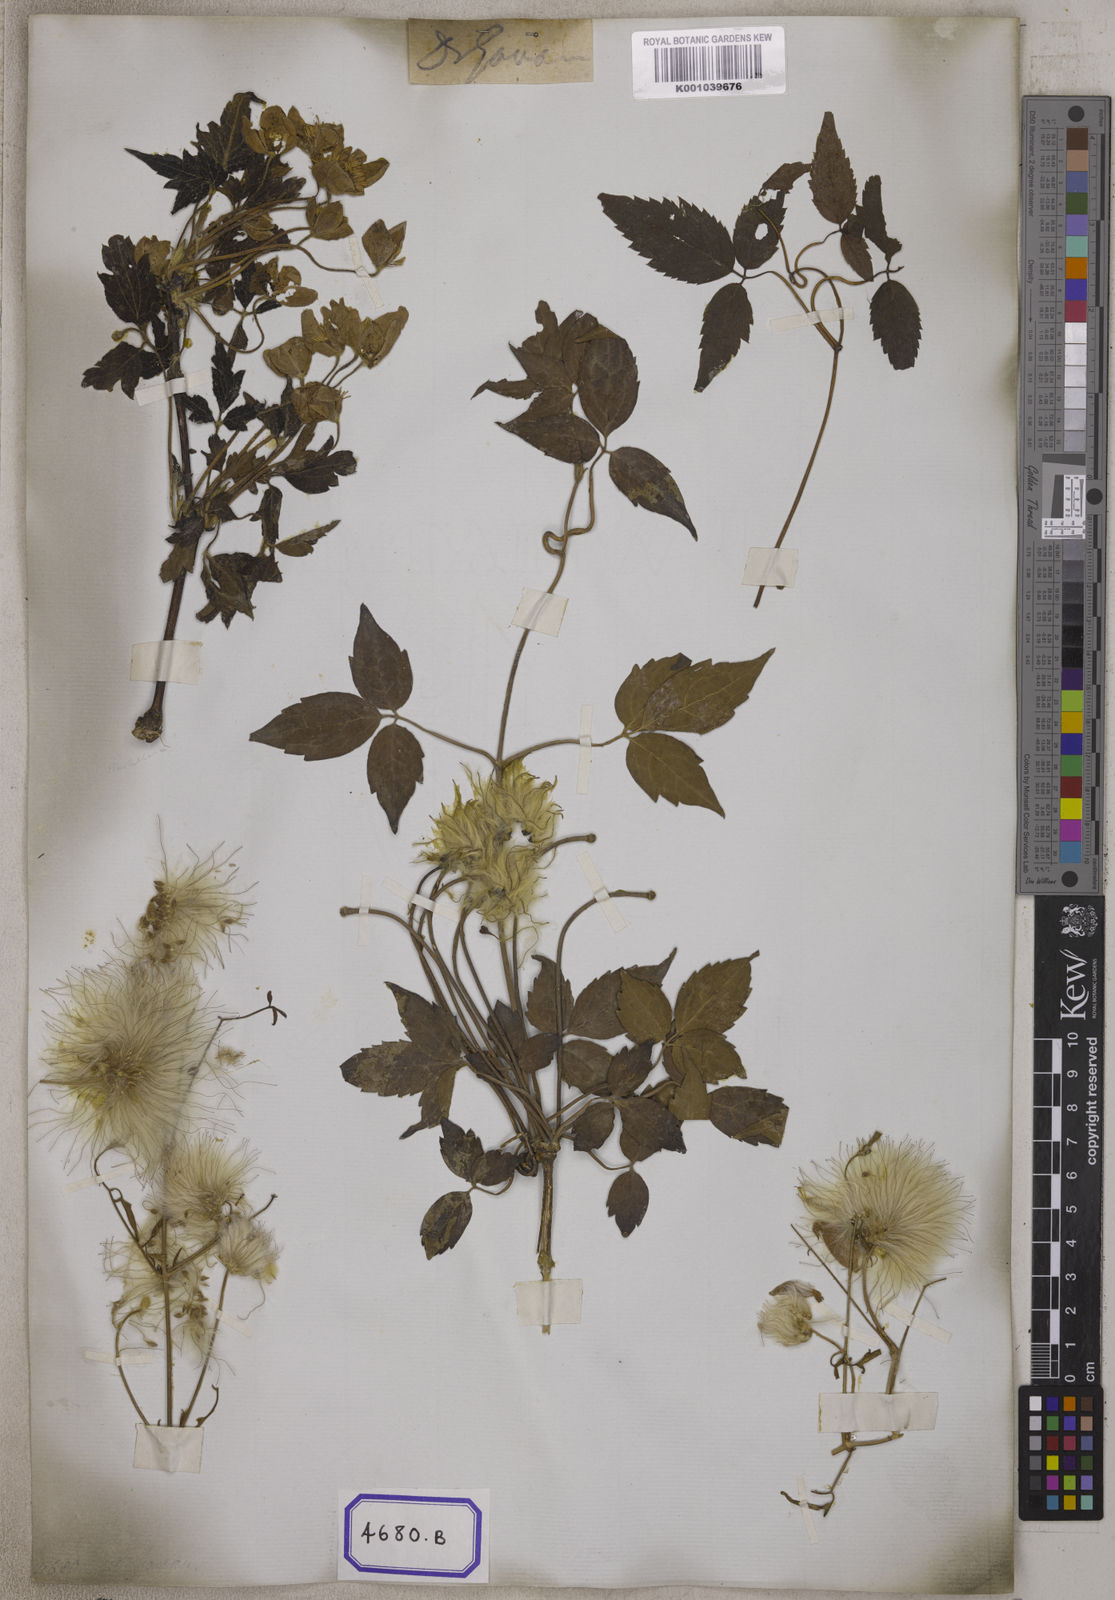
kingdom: Plantae
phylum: Tracheophyta
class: Magnoliopsida
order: Ranunculales
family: Ranunculaceae
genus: Clematis
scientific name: Clematis barbellata
